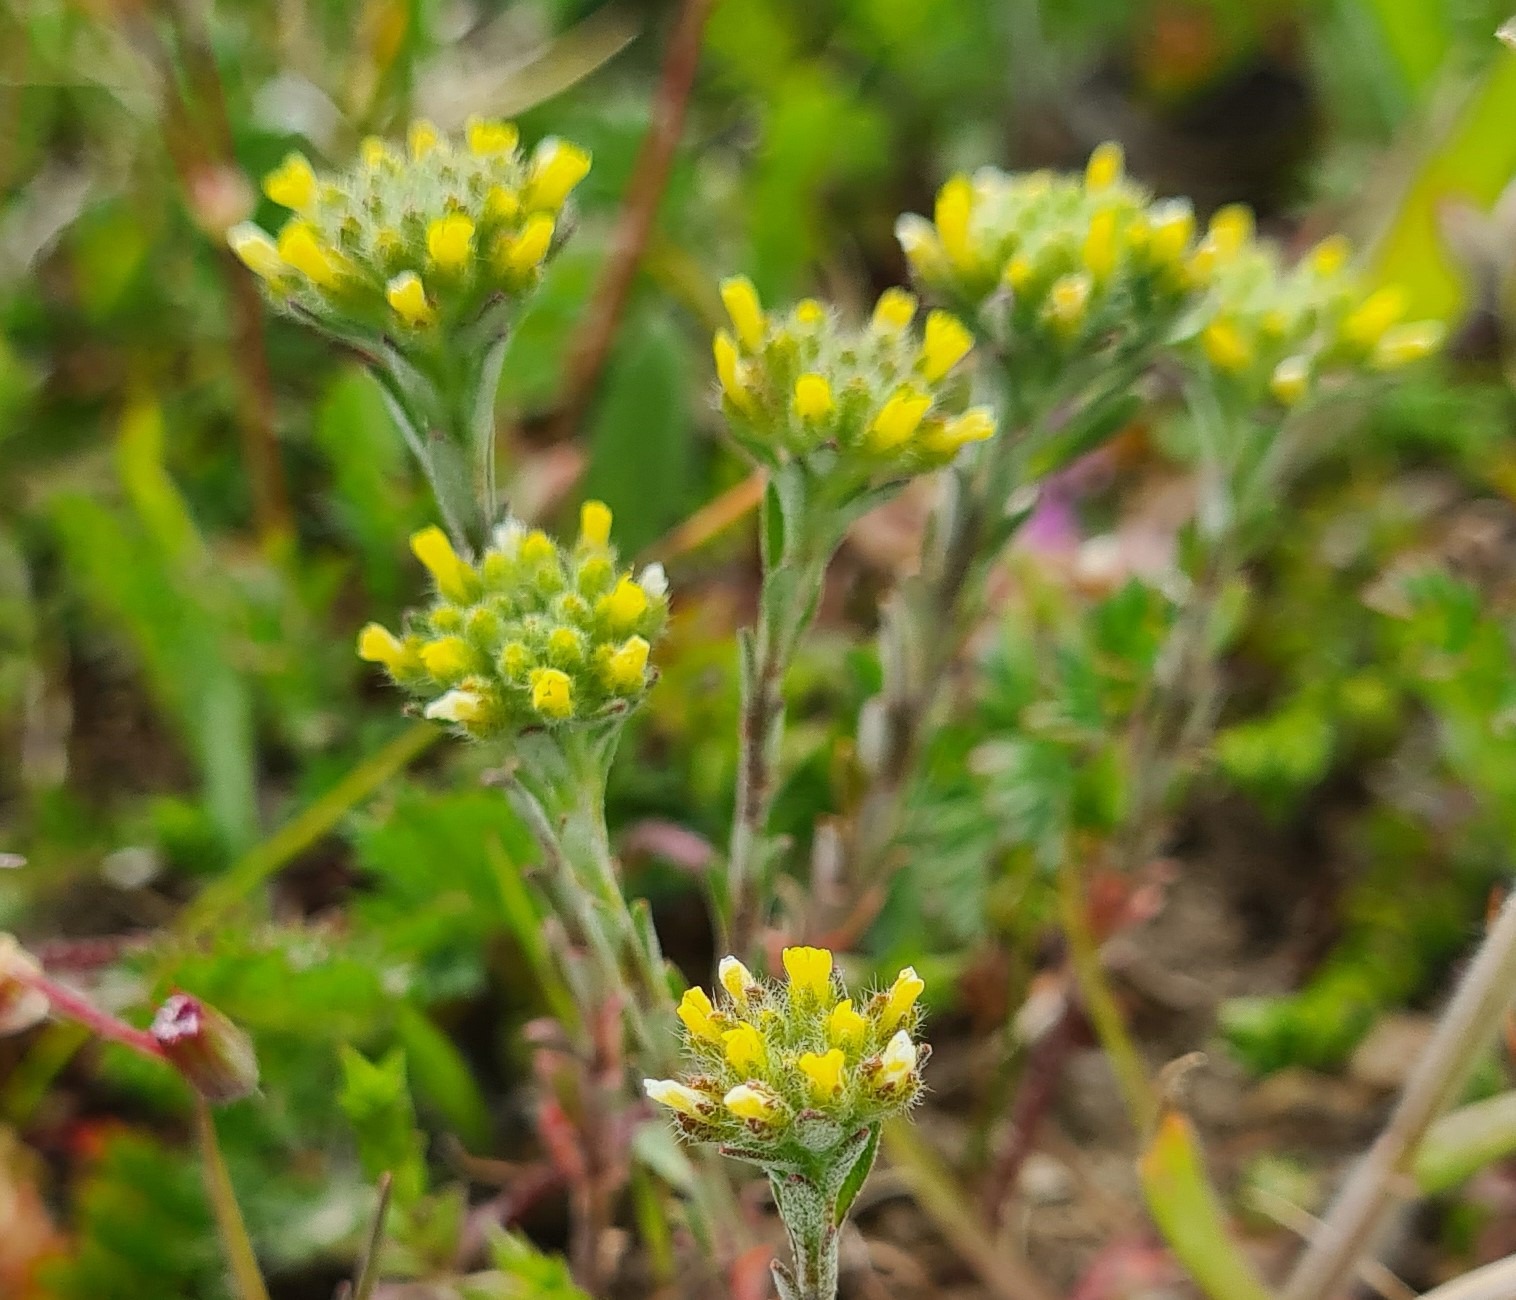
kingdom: Plantae
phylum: Tracheophyta
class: Magnoliopsida
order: Brassicales
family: Brassicaceae
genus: Alyssum
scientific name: Alyssum alyssoides
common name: Grådodder
